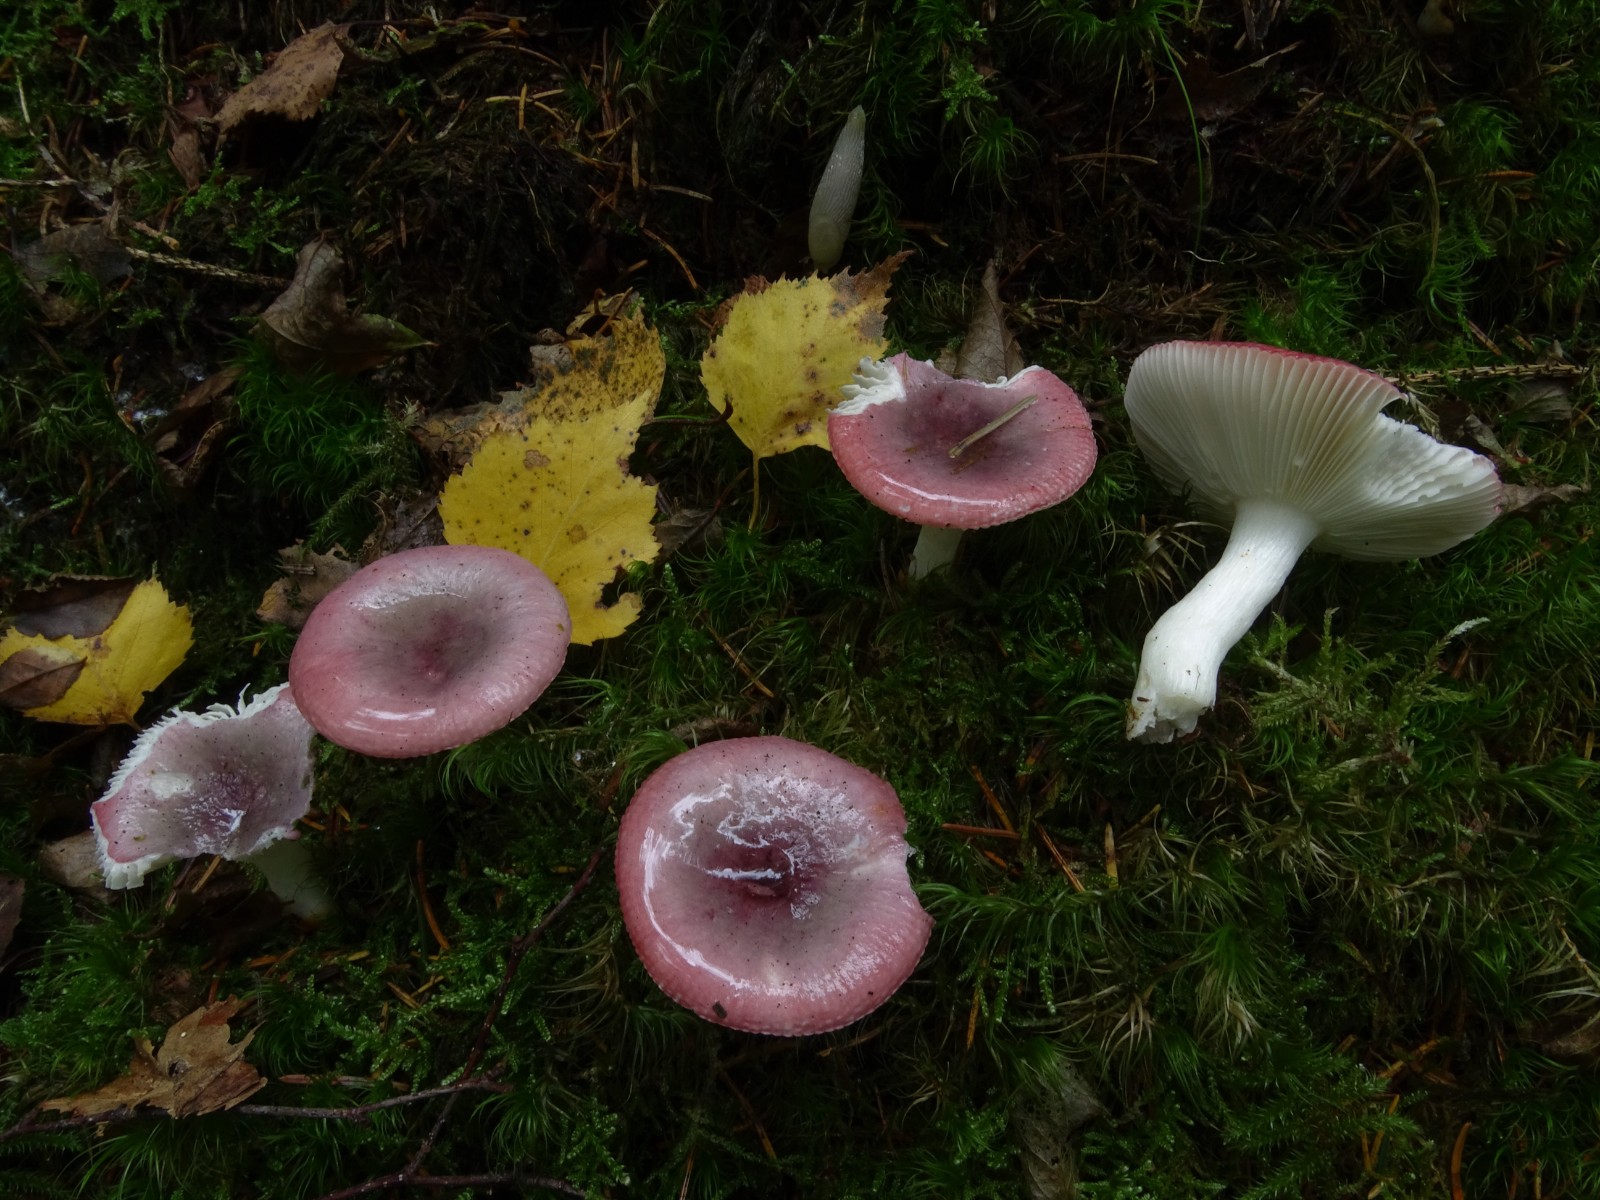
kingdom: Fungi
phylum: Basidiomycota
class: Agaricomycetes
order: Russulales
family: Russulaceae
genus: Russula
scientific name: Russula atrorubens
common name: sortrød skørhat
